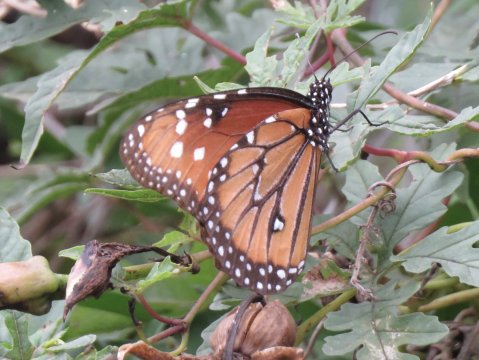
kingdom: Animalia
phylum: Arthropoda
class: Insecta
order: Lepidoptera
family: Nymphalidae
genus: Danaus
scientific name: Danaus gilippus
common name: Queen
